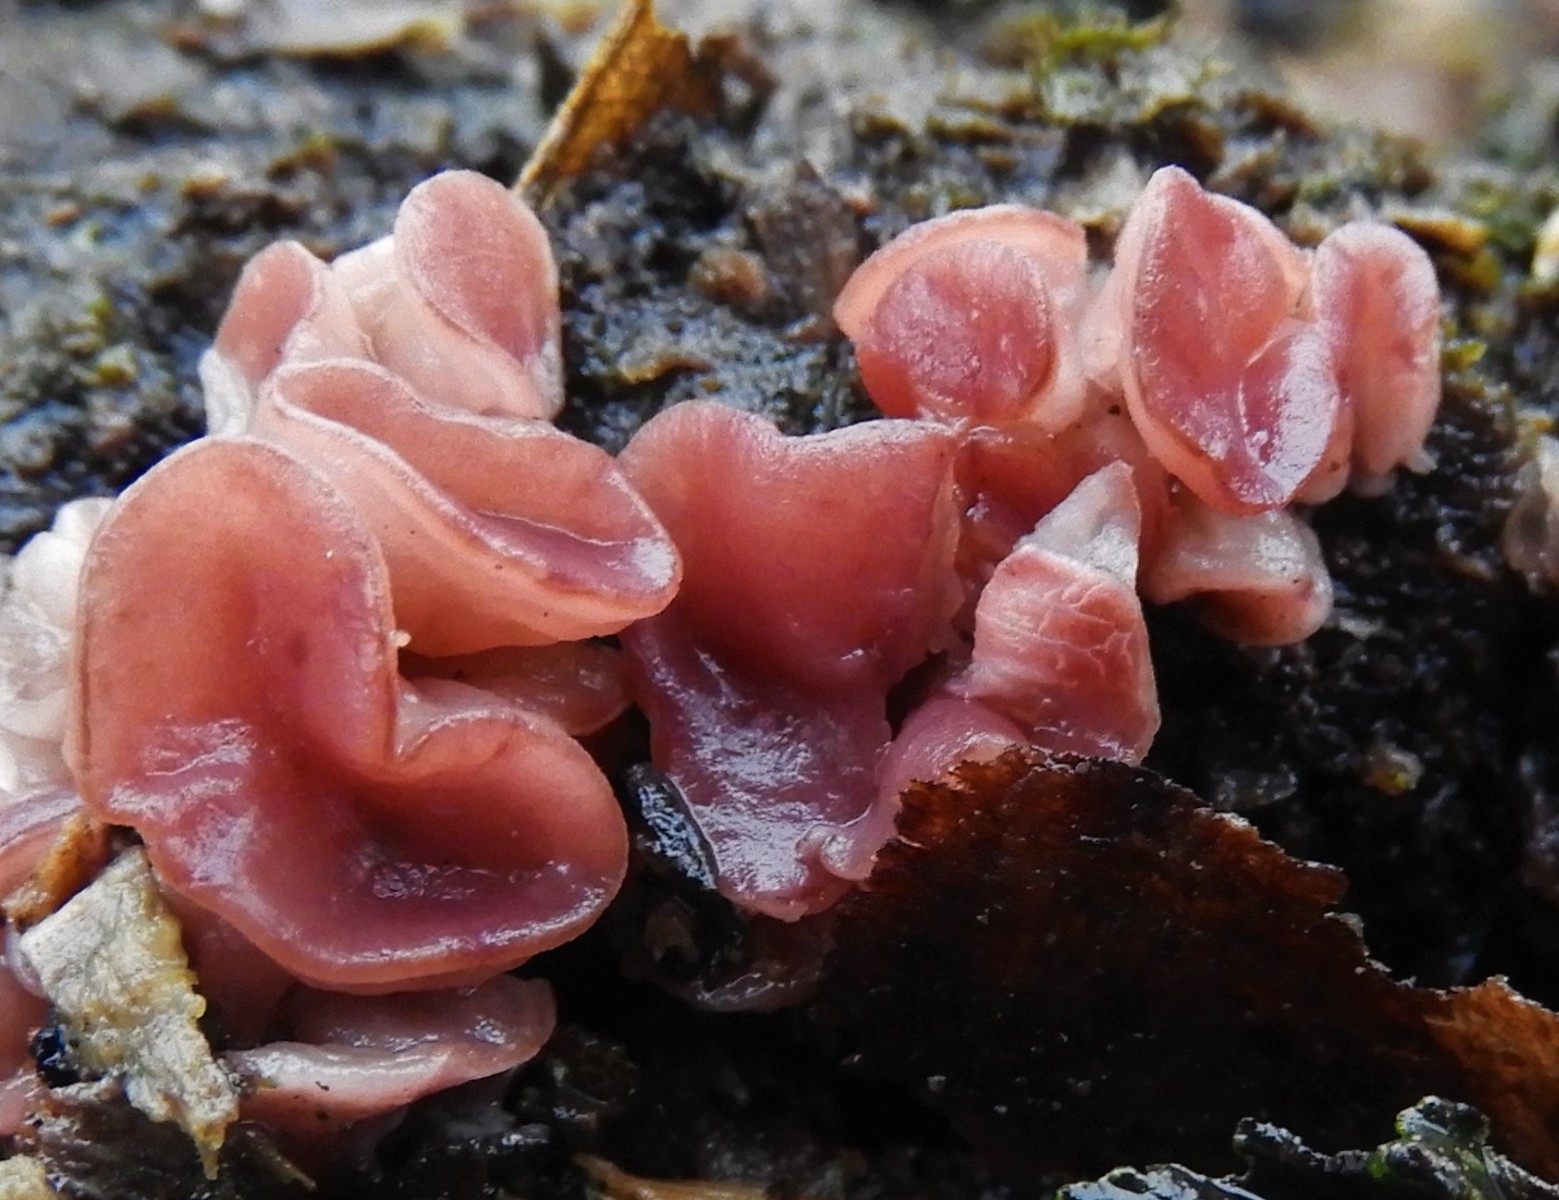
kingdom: Fungi
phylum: Ascomycota
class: Leotiomycetes
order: Helotiales
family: Gelatinodiscaceae
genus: Ascocoryne
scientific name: Ascocoryne cylichnium
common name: stor sejskive
